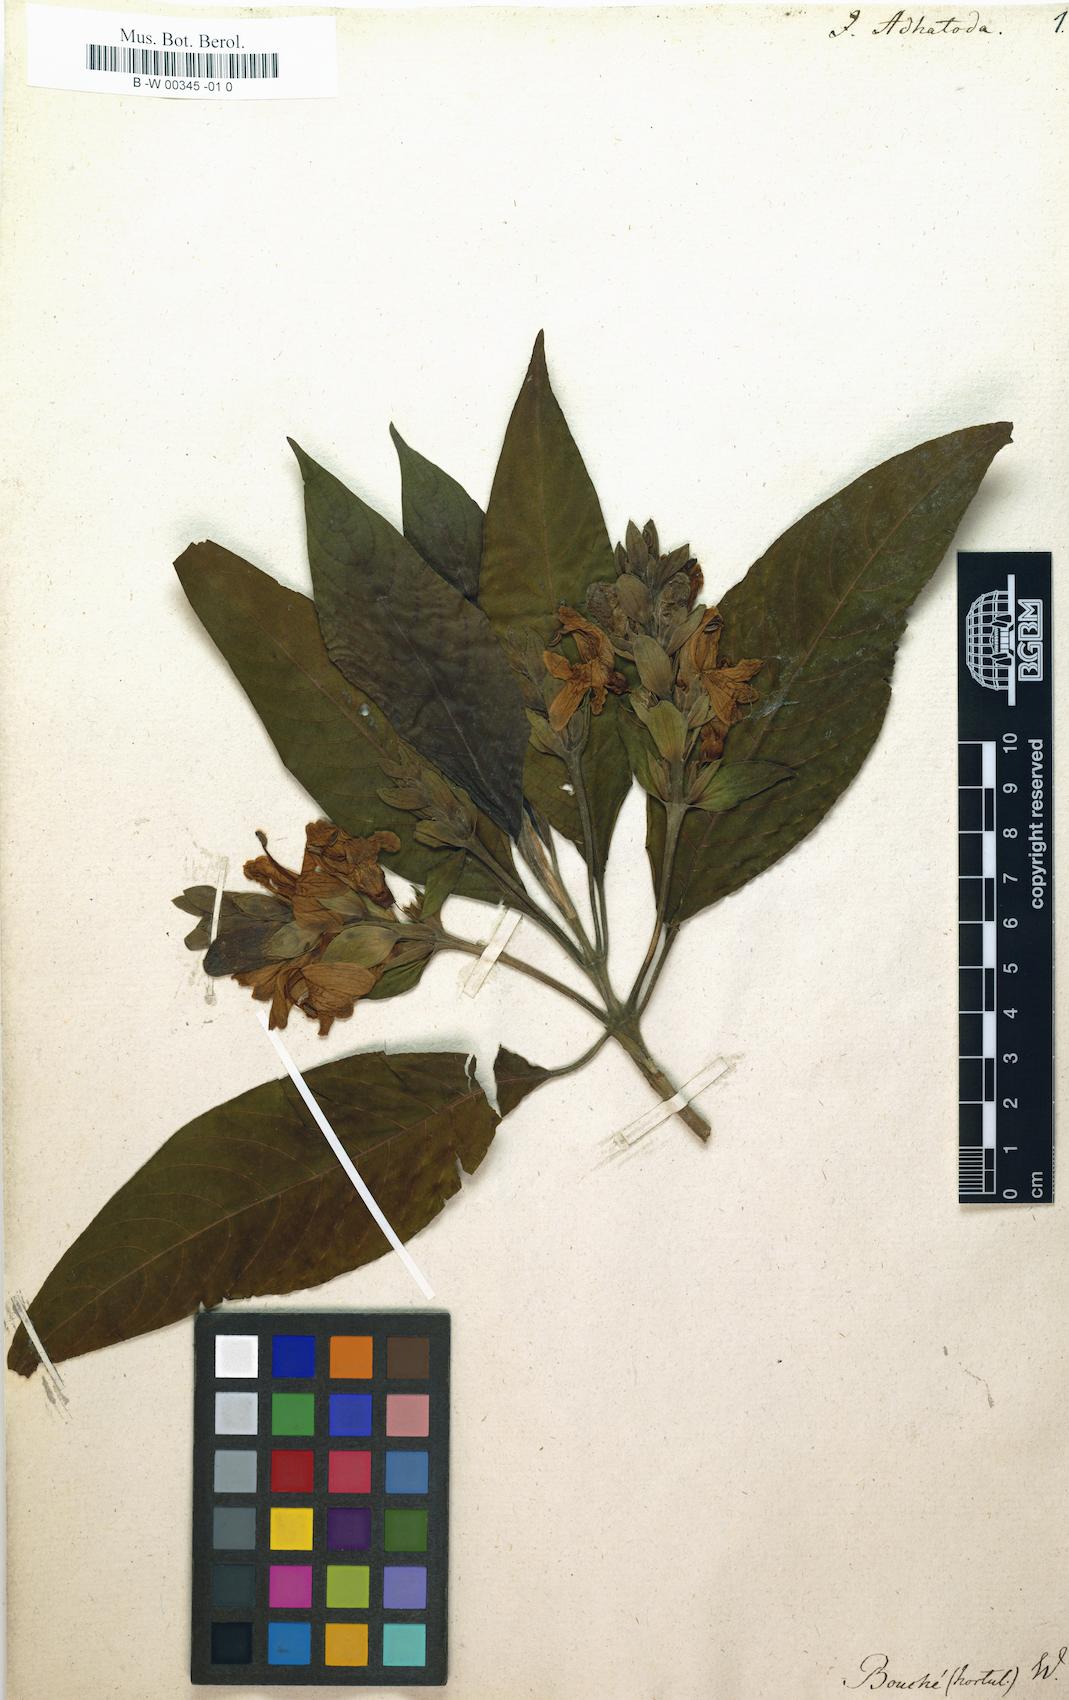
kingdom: Plantae
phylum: Tracheophyta
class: Magnoliopsida
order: Lamiales
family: Acanthaceae
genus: Justicia
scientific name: Justicia adhatoda
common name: Malabar nut
